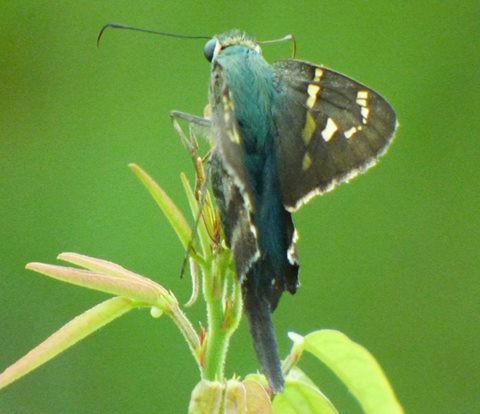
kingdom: Animalia
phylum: Arthropoda
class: Insecta
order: Lepidoptera
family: Hesperiidae
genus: Urbanus
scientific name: Urbanus proteus
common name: Long-tailed Skipper
